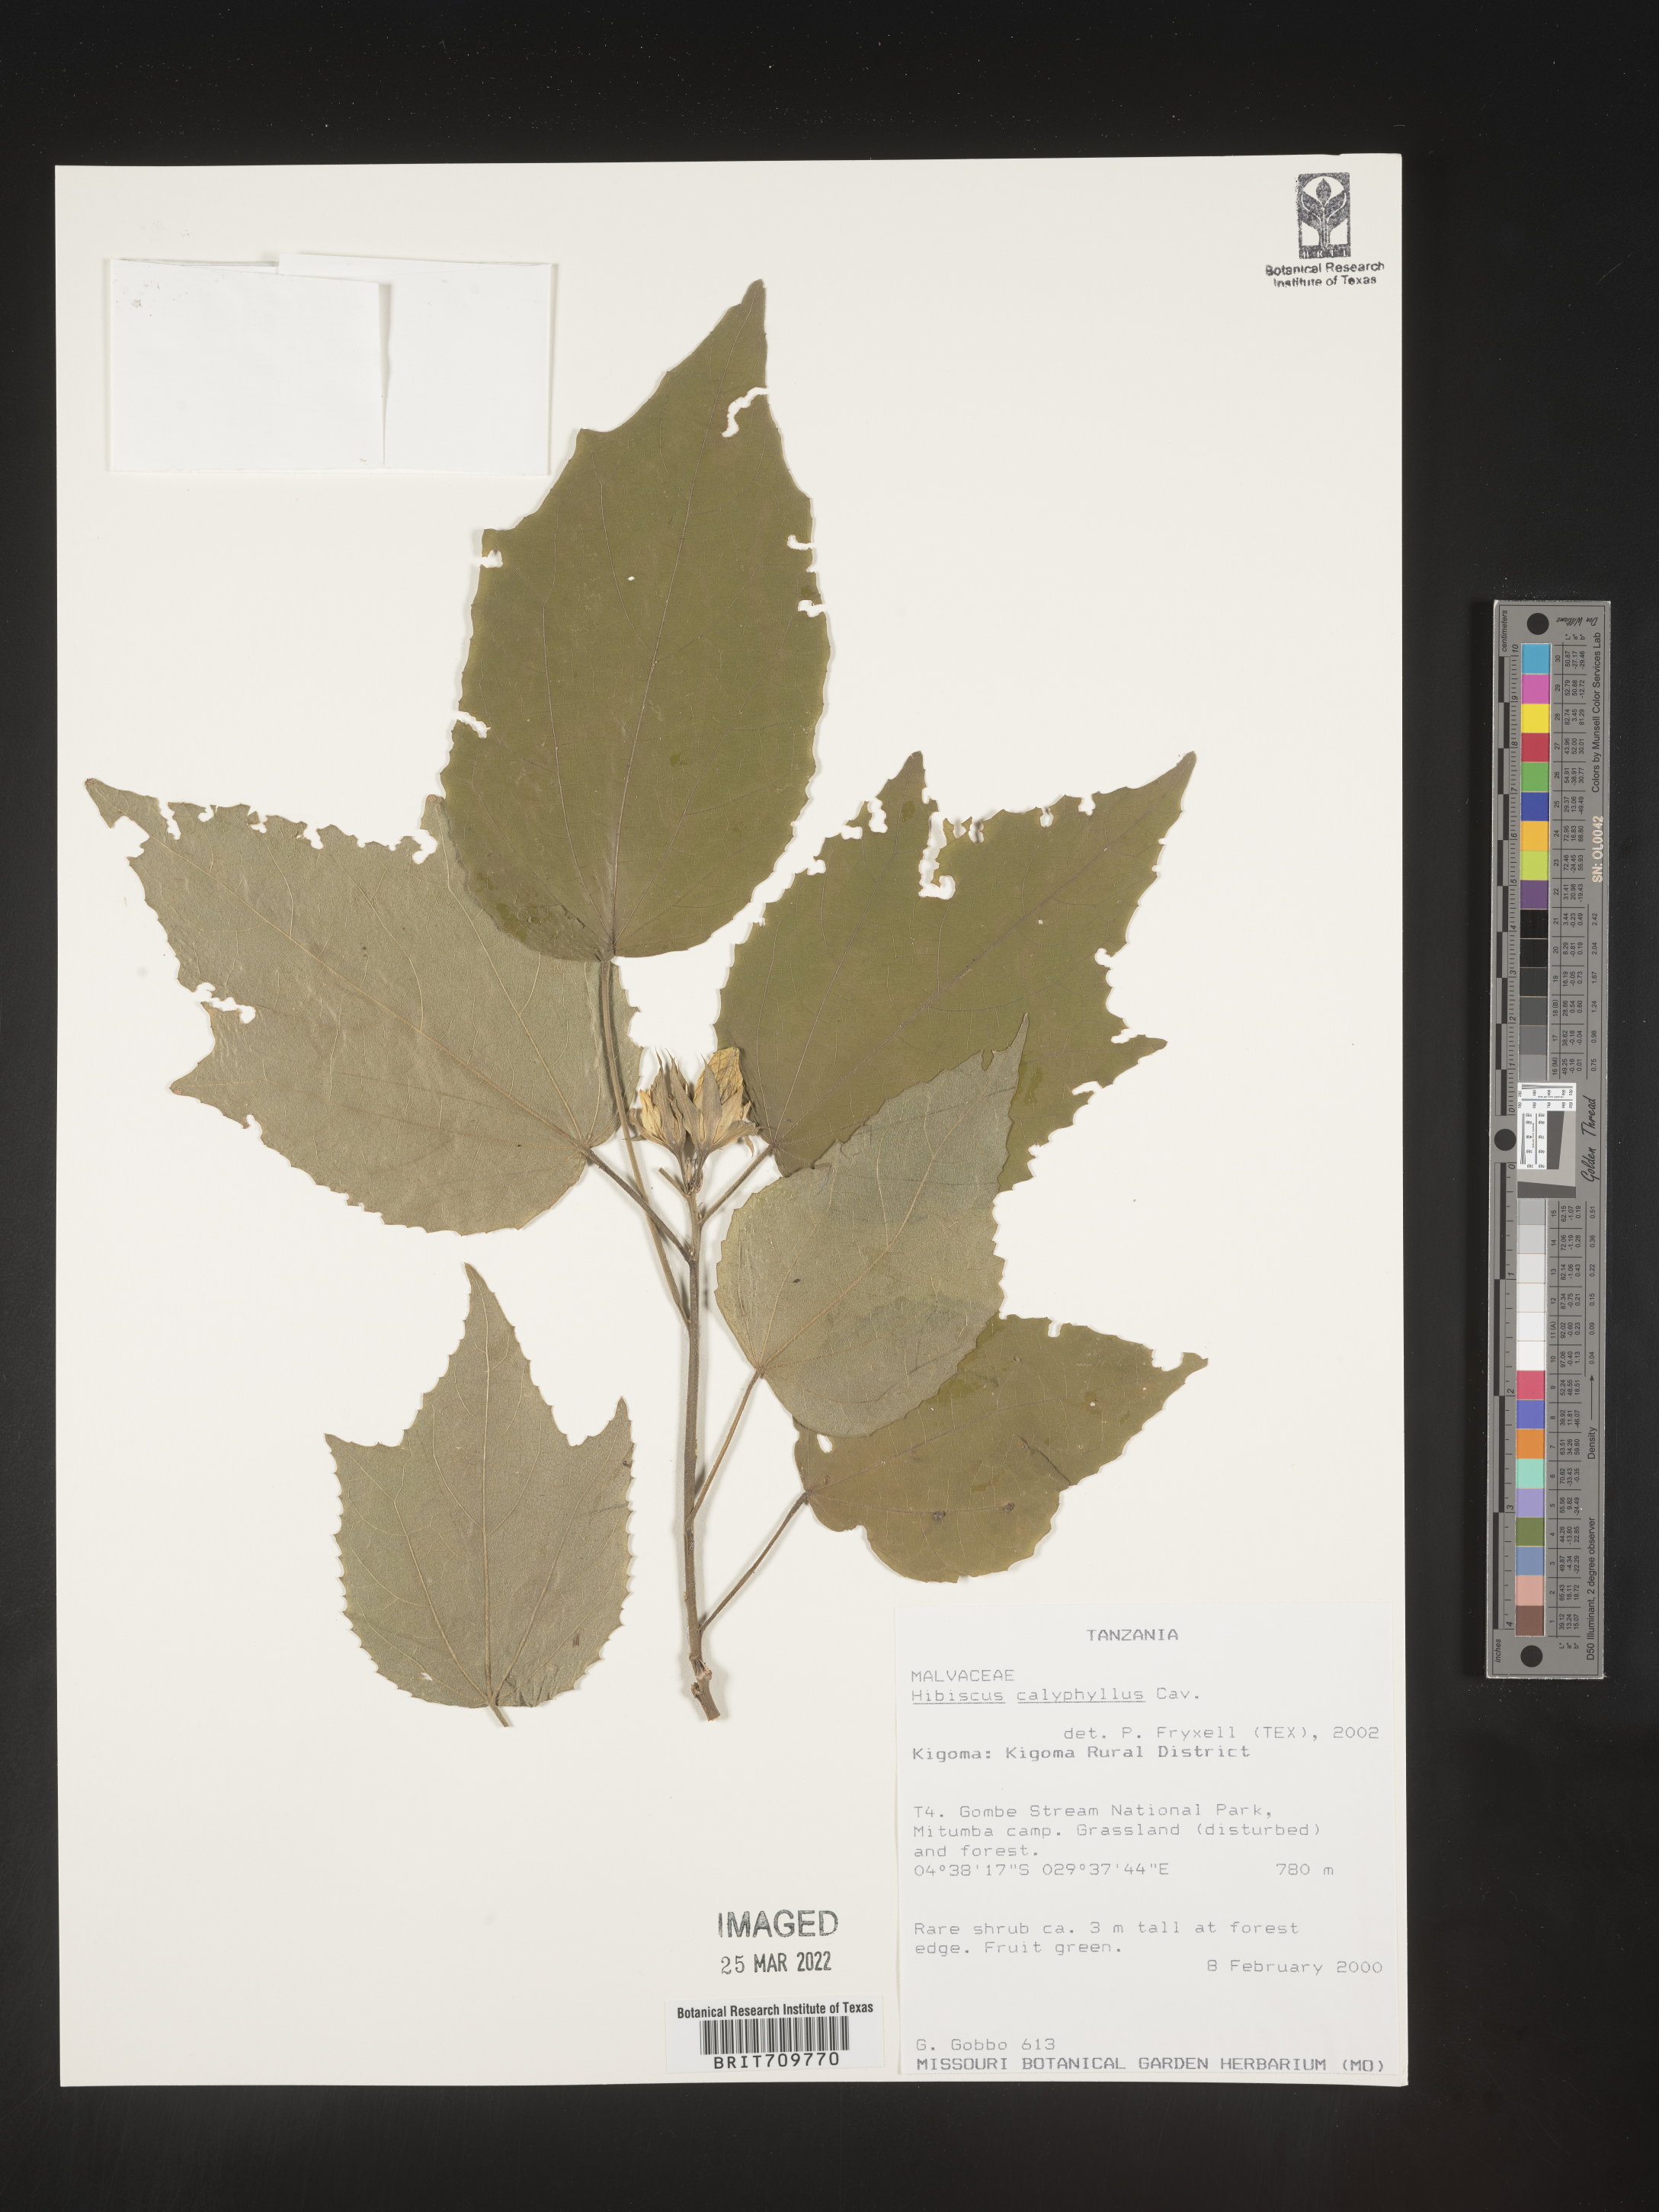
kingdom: Plantae
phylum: Tracheophyta
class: Magnoliopsida
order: Malvales
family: Malvaceae
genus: Hibiscus
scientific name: Hibiscus
